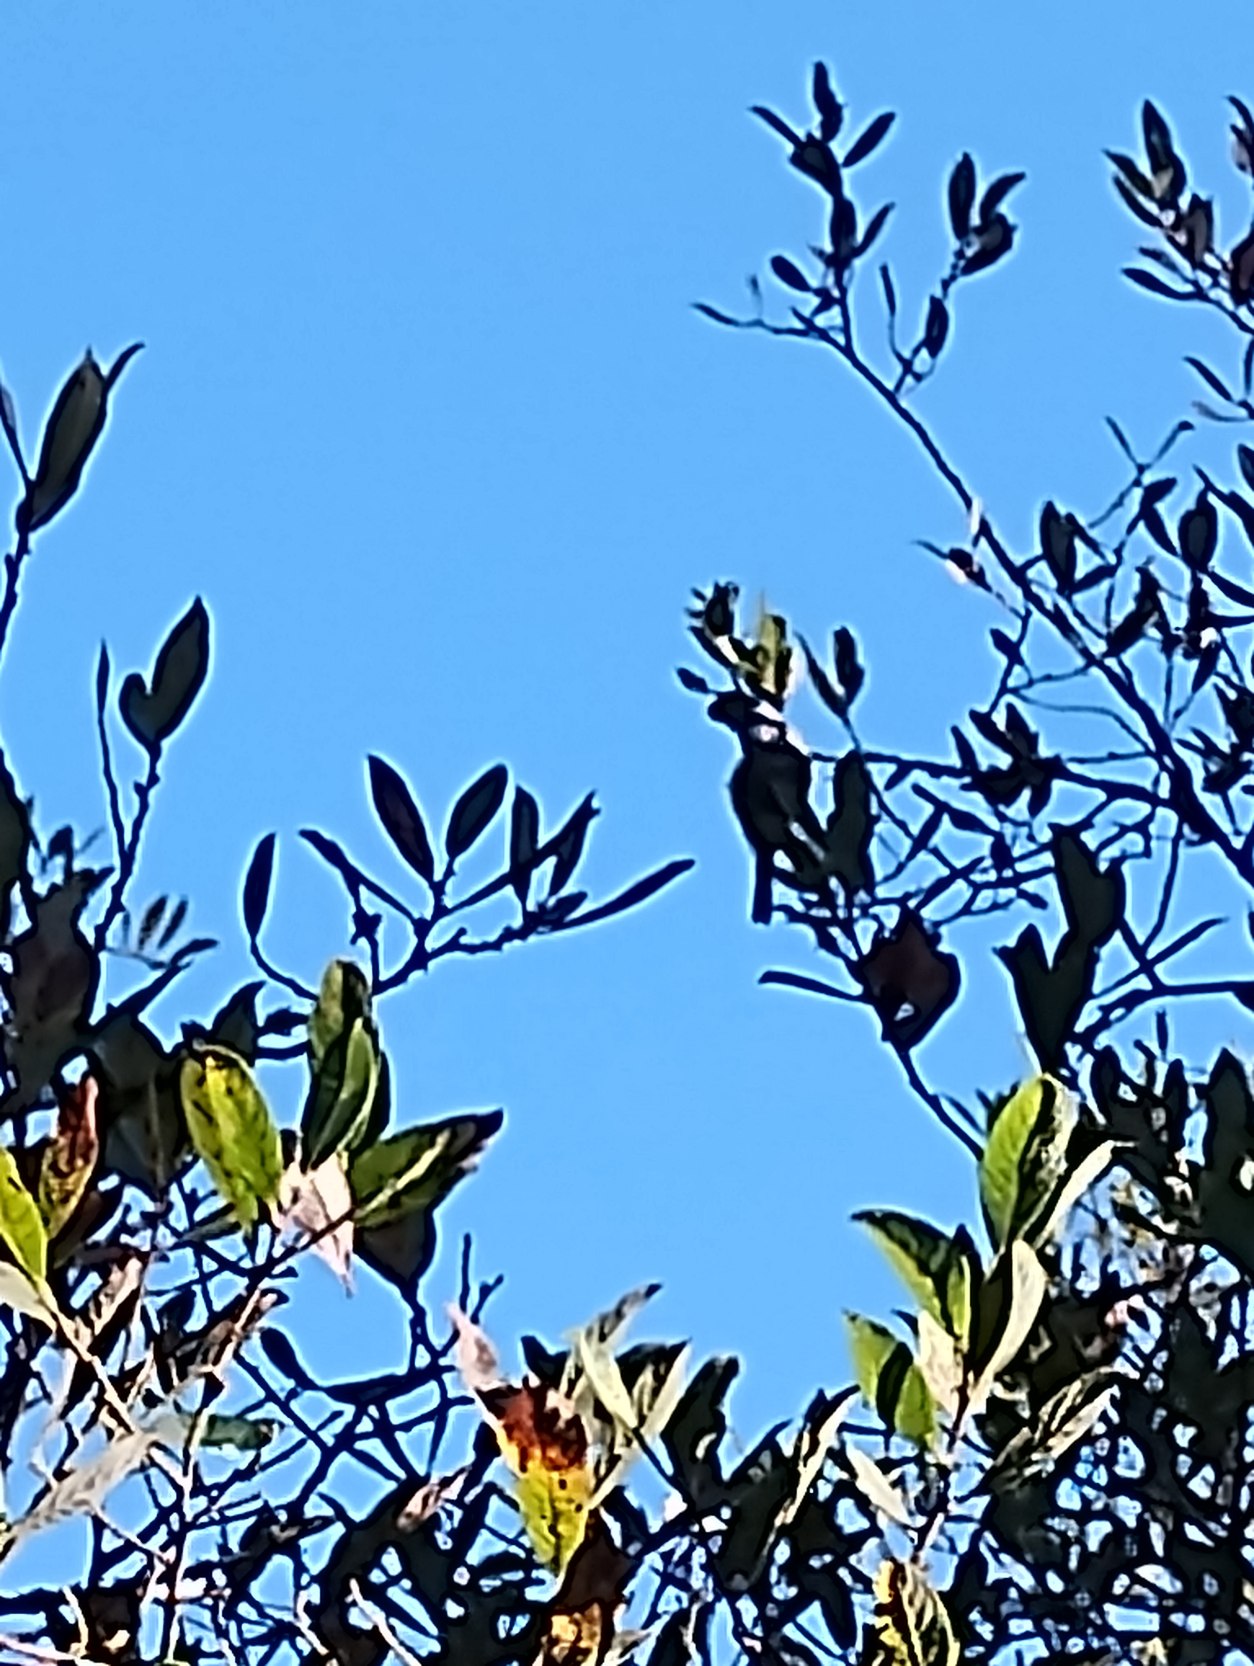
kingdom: Animalia
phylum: Chordata
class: Aves
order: Passeriformes
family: Paridae
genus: Parus
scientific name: Parus major
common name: Musvit
